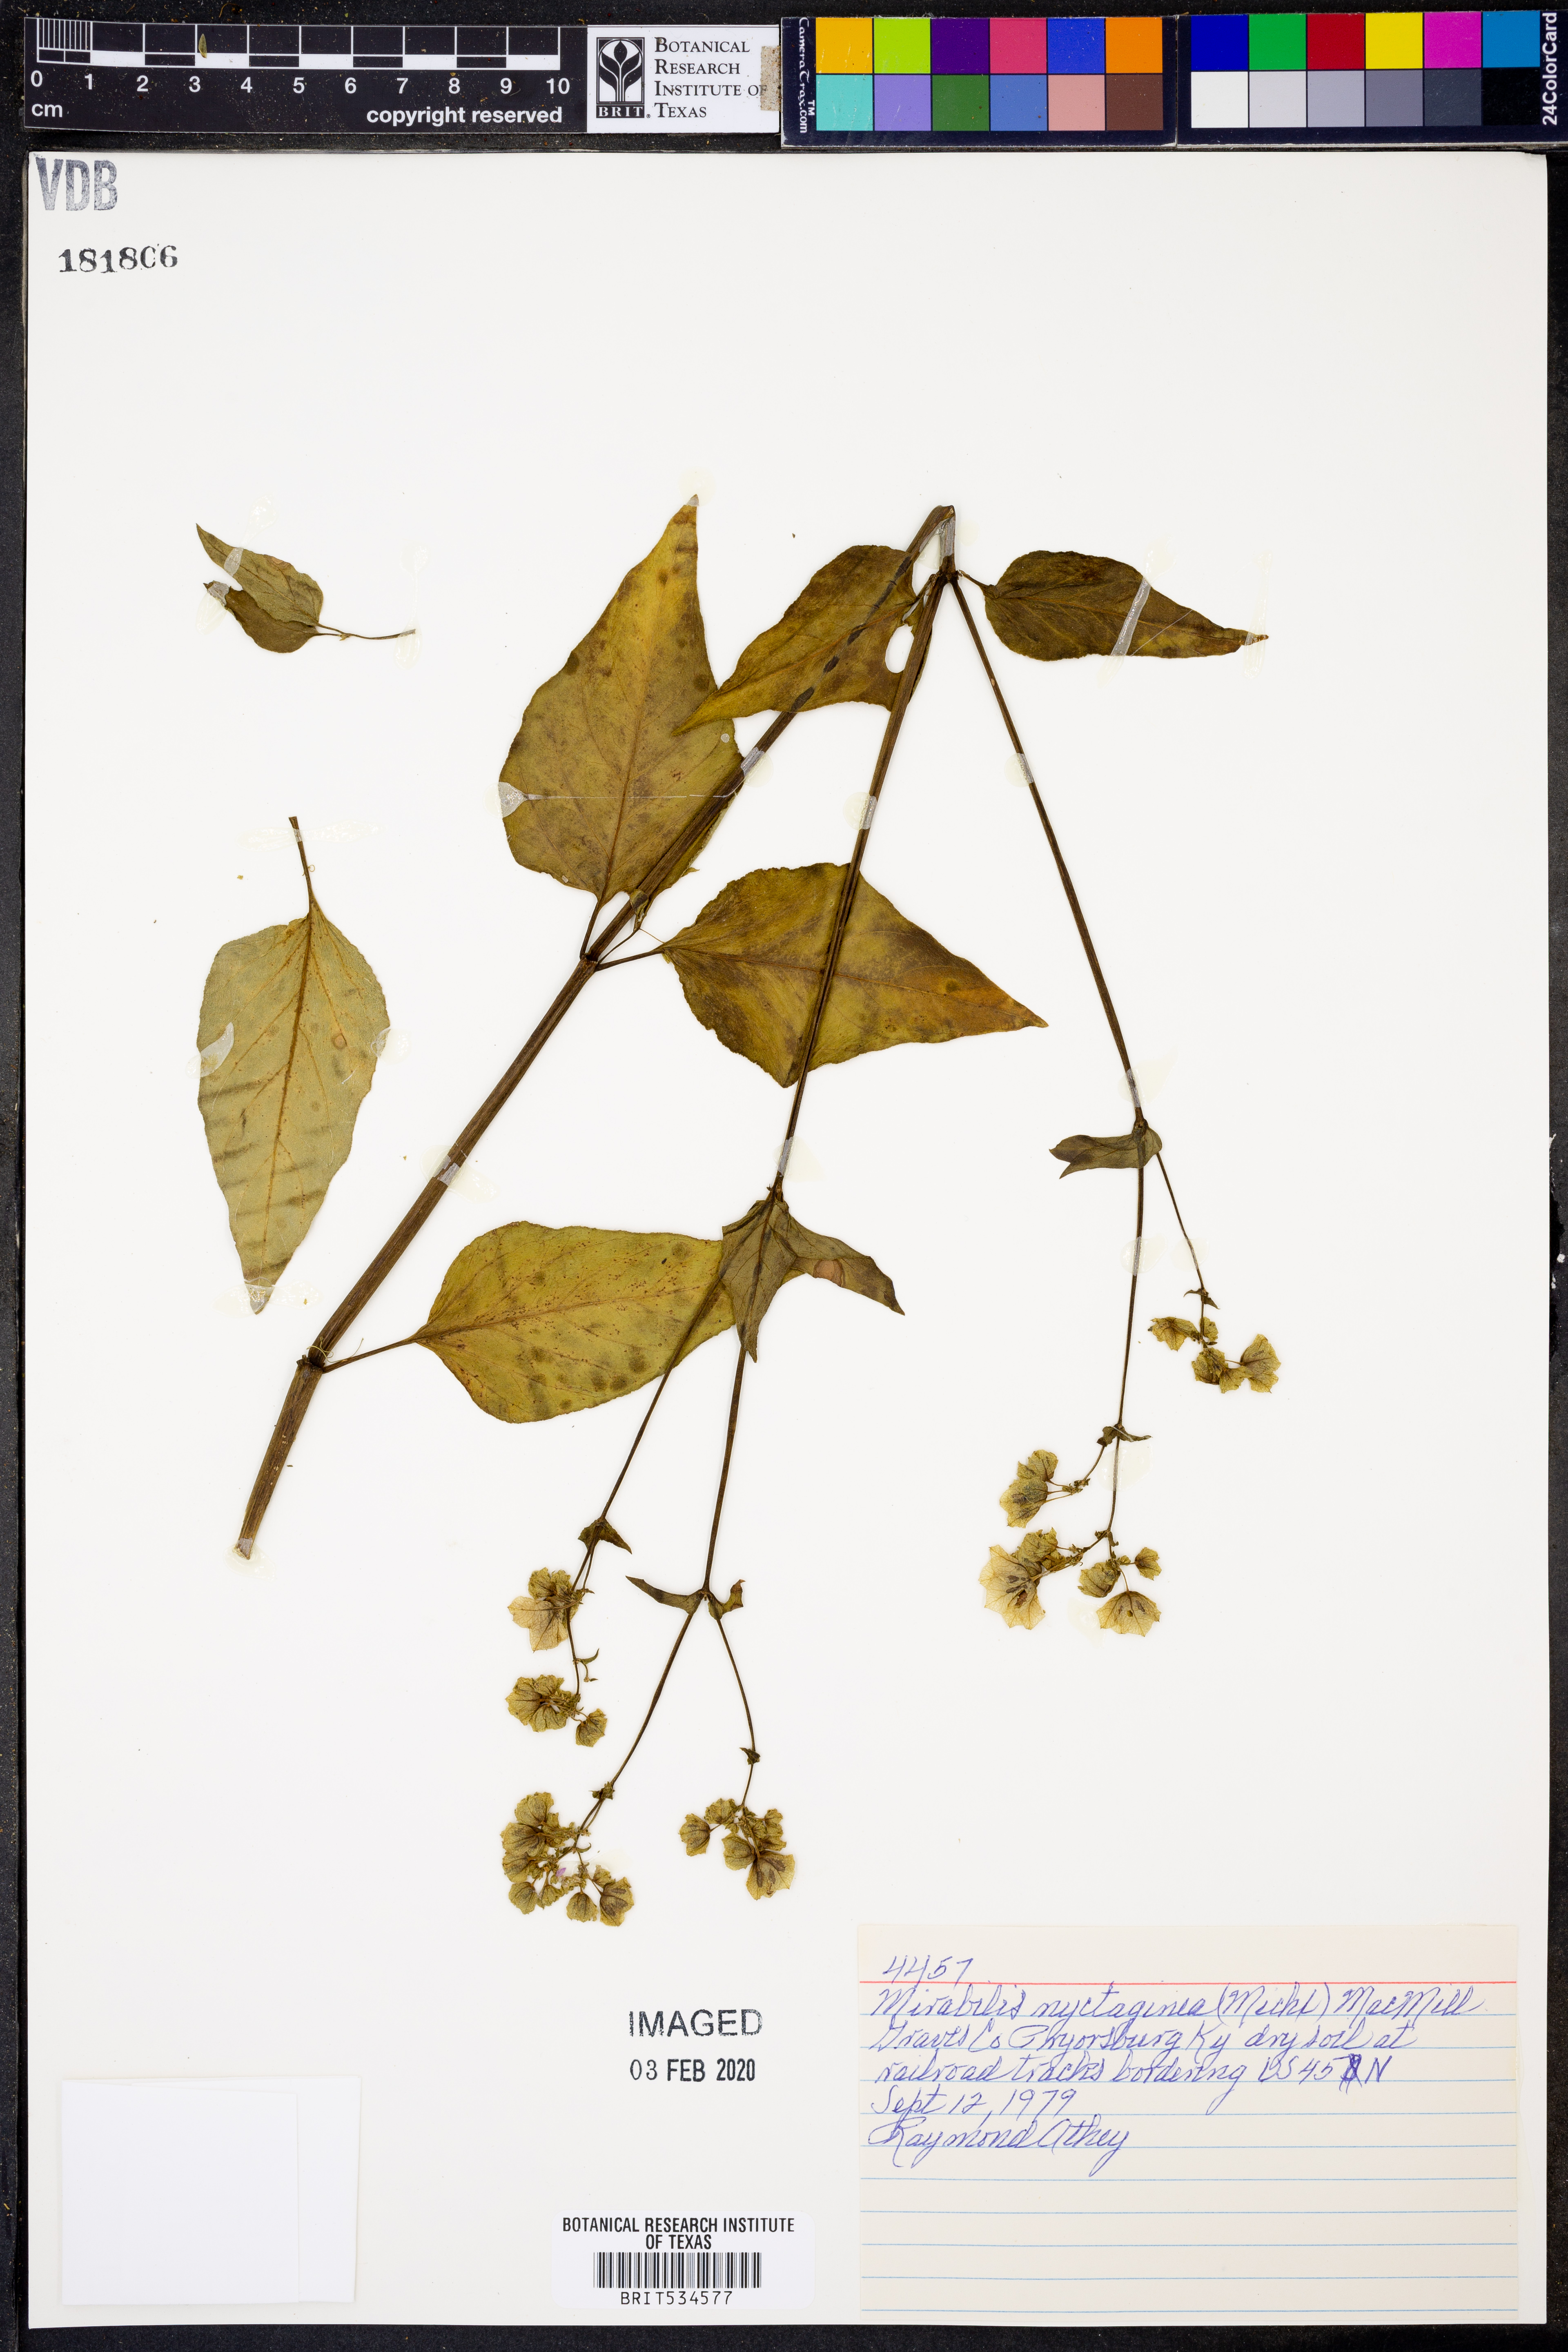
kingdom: Plantae
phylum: Tracheophyta
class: Magnoliopsida
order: Caryophyllales
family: Nyctaginaceae
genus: Mirabilis
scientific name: Mirabilis nyctaginea
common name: Umbrella wort
